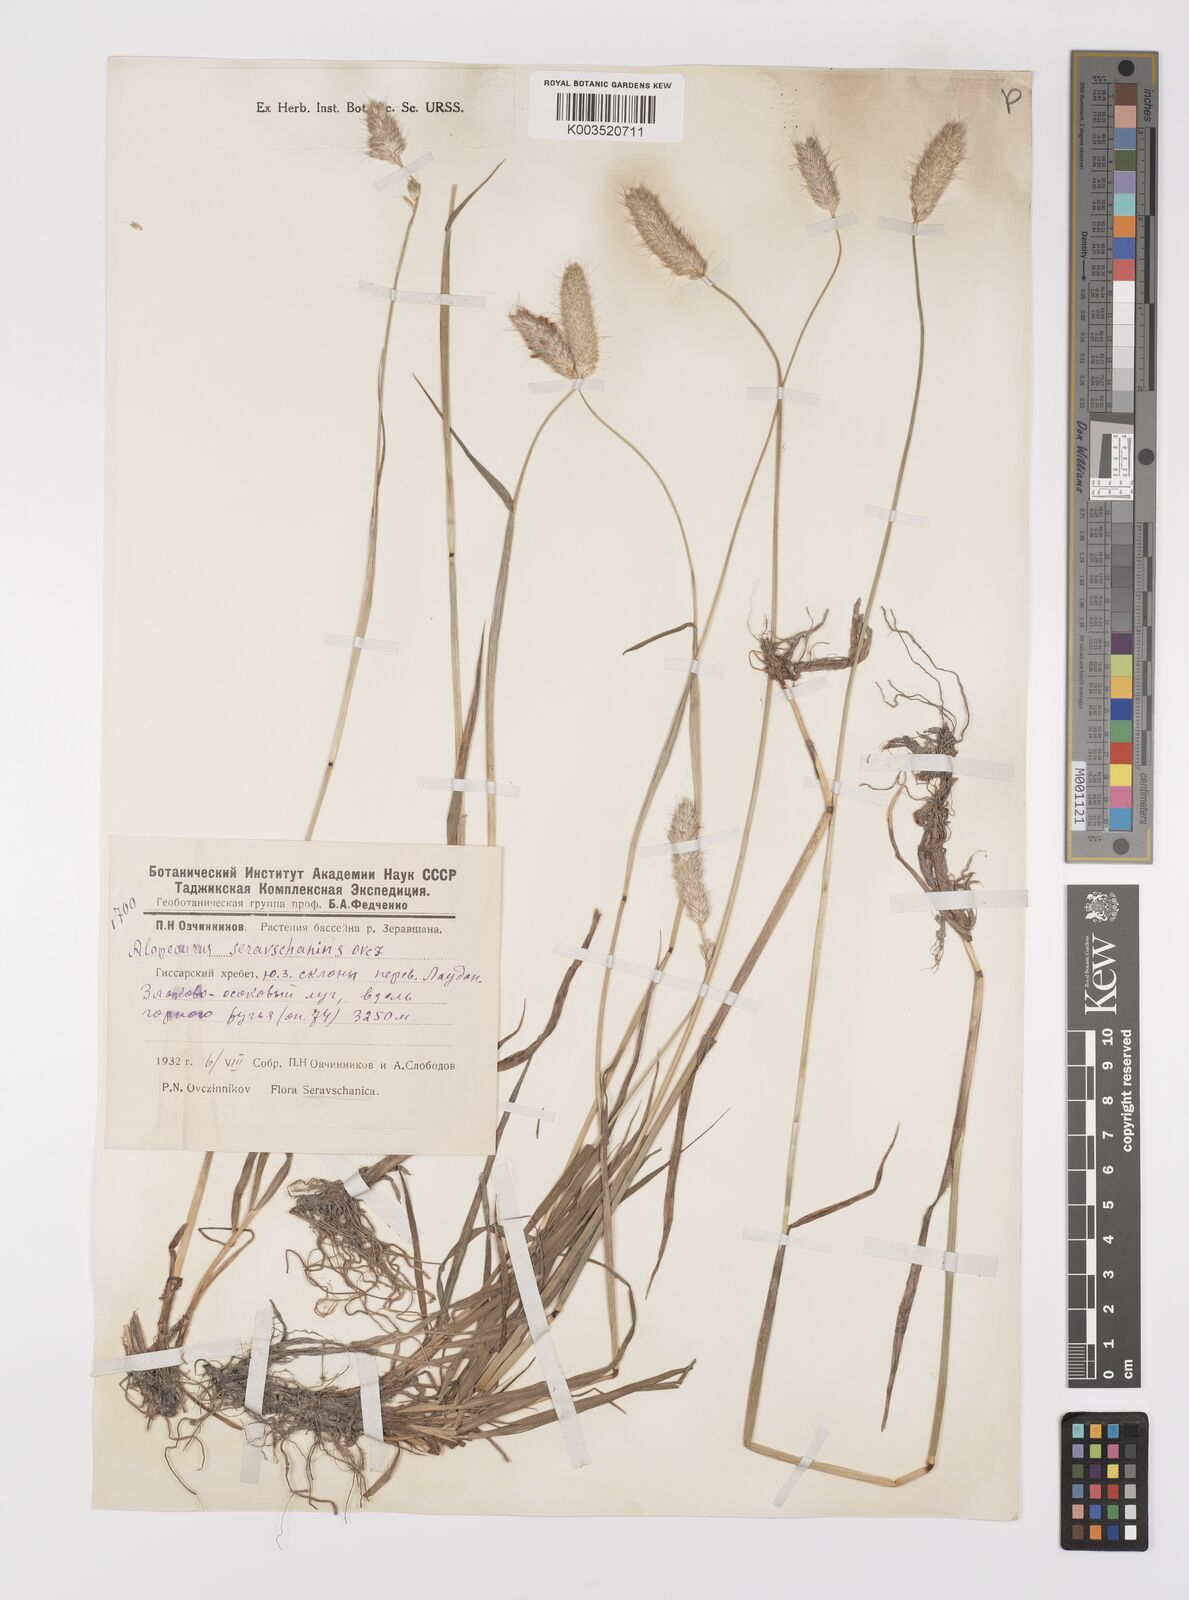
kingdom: Plantae
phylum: Tracheophyta
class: Liliopsida
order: Poales
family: Poaceae
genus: Alopecurus
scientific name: Alopecurus pratensis
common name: Meadow foxtail
